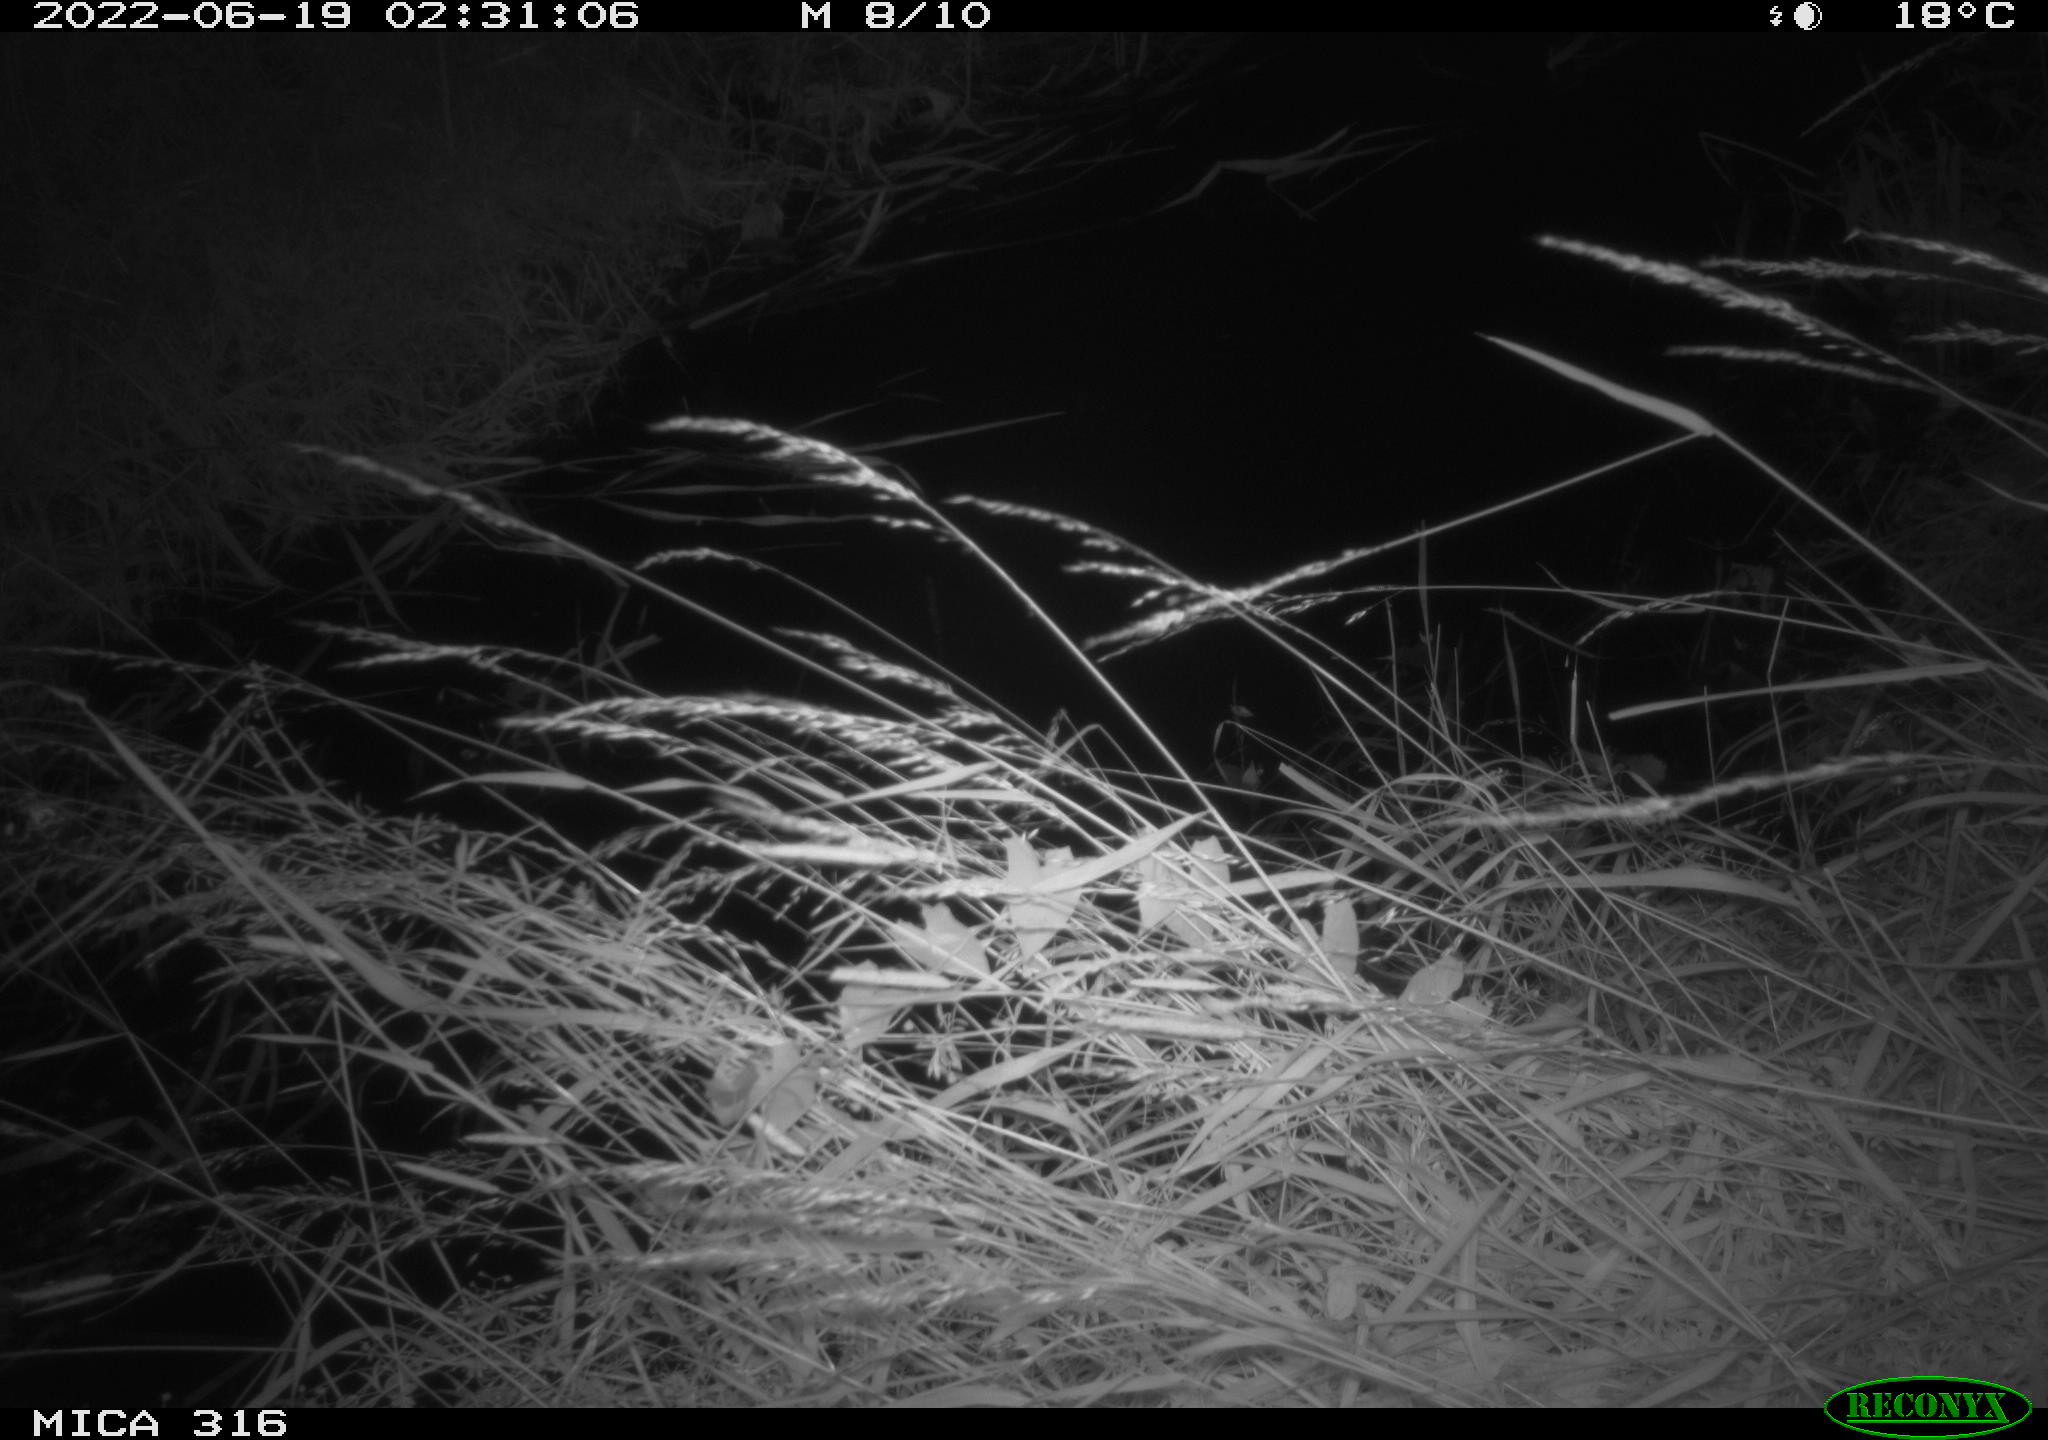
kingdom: Animalia
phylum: Chordata
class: Mammalia
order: Carnivora
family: Mustelidae
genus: Martes
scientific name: Martes foina
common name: Beech marten
